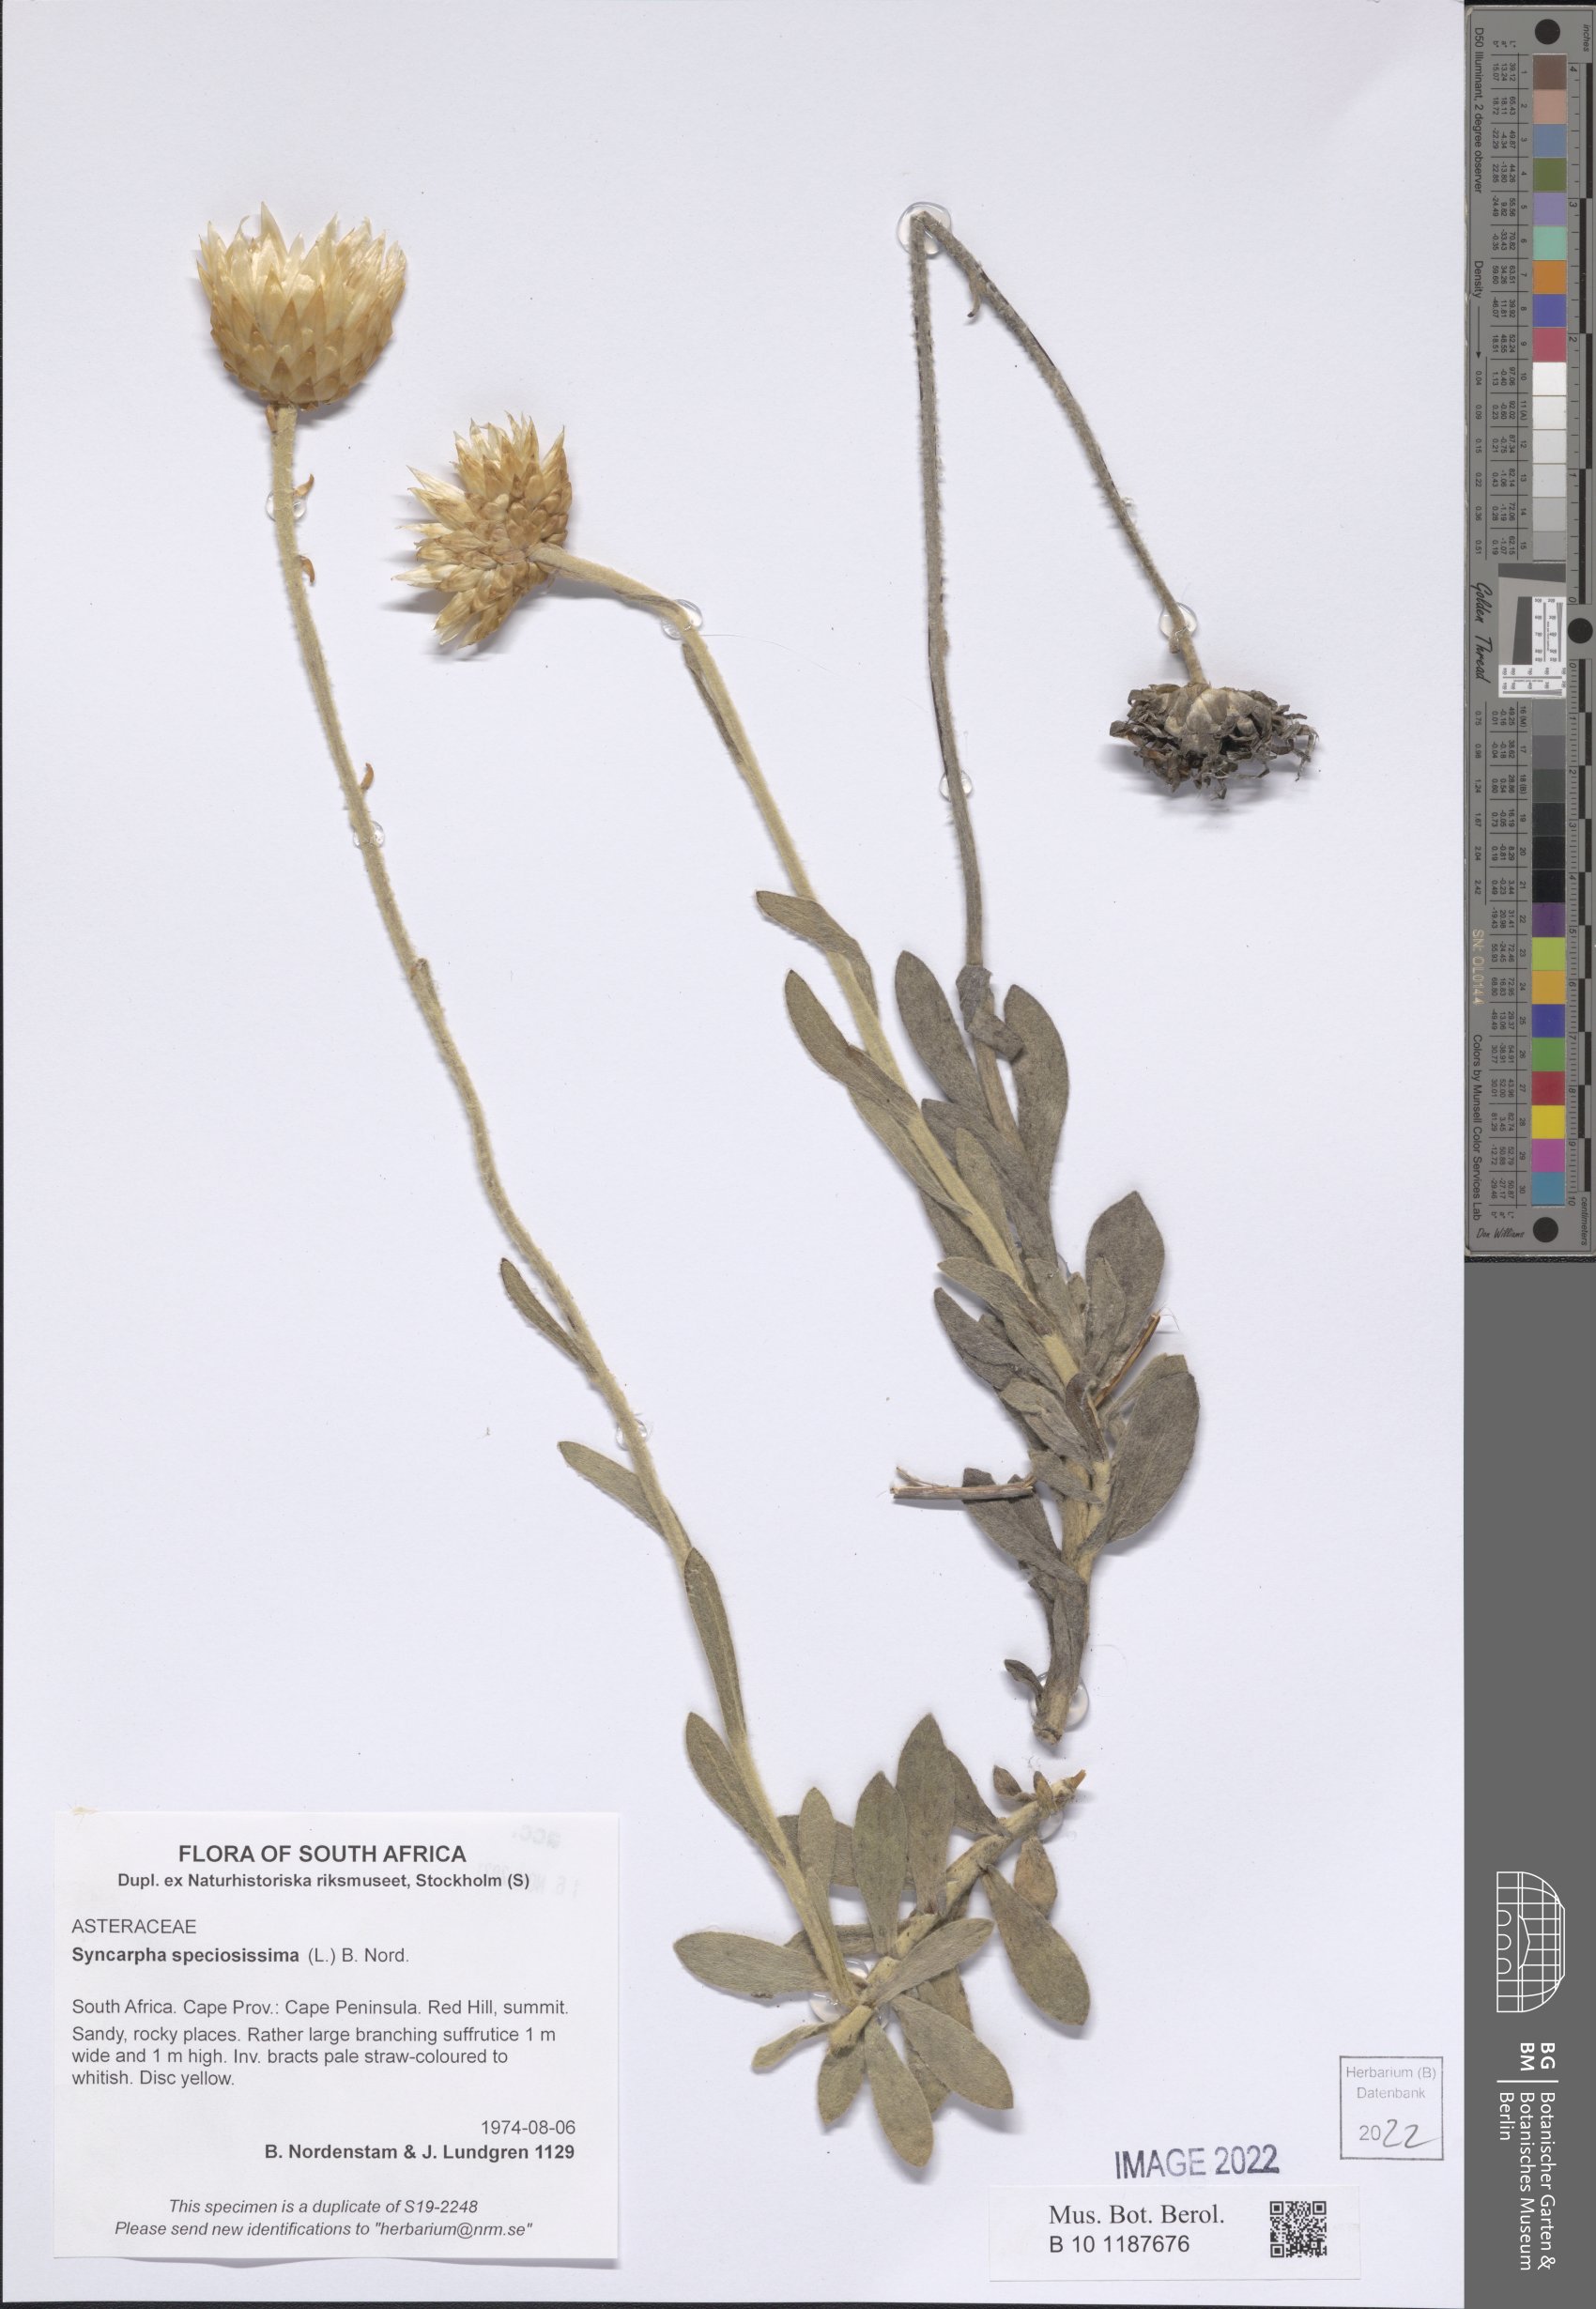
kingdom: Plantae
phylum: Tracheophyta
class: Magnoliopsida
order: Asterales
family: Asteraceae
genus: Syncarpha
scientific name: Syncarpha speciosissima
